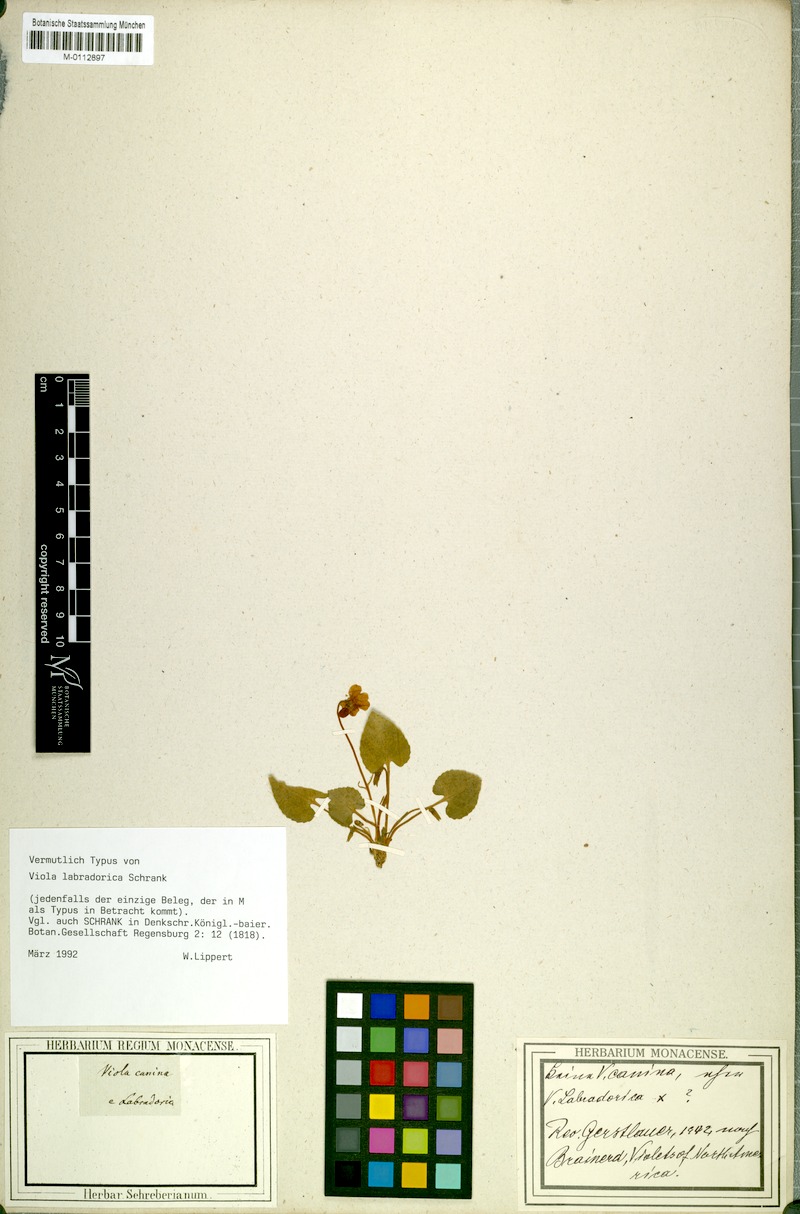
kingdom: Plantae
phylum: Tracheophyta
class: Magnoliopsida
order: Malpighiales
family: Violaceae
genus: Viola
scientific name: Viola labradorica
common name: Labrador violet
